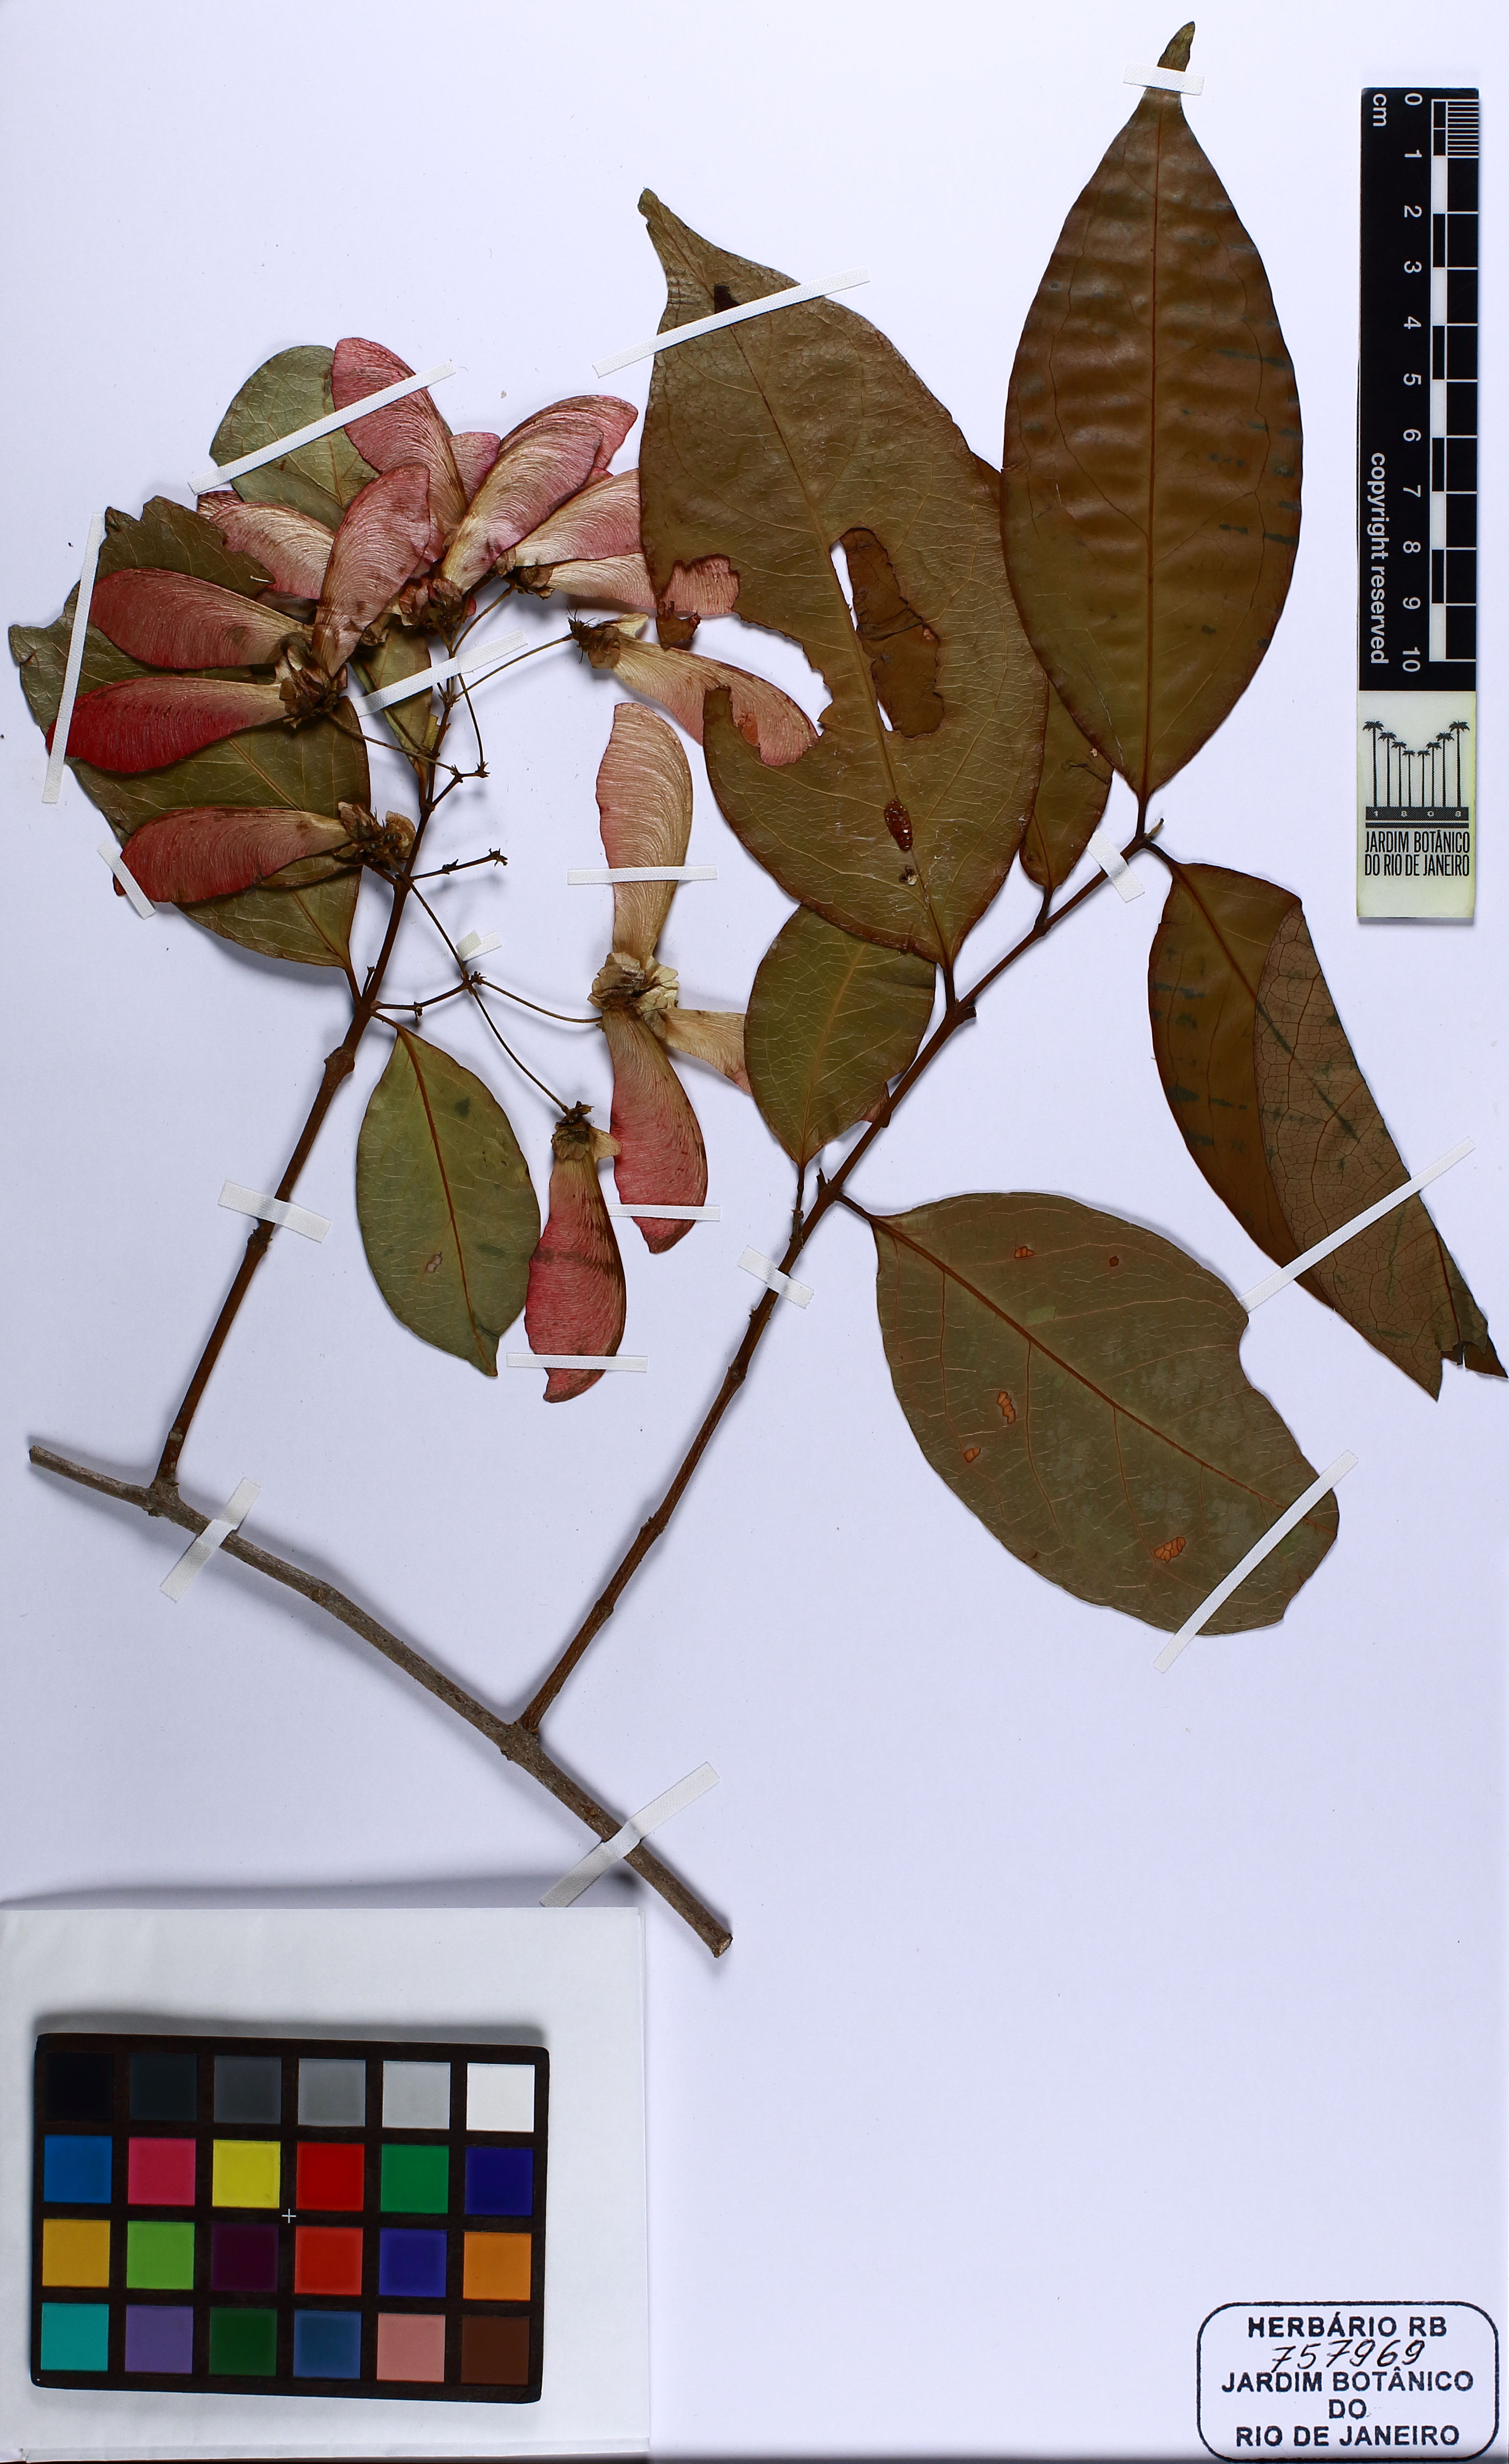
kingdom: Plantae
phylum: Tracheophyta
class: Magnoliopsida
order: Malpighiales
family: Malpighiaceae
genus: Diplopterys
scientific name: Diplopterys
